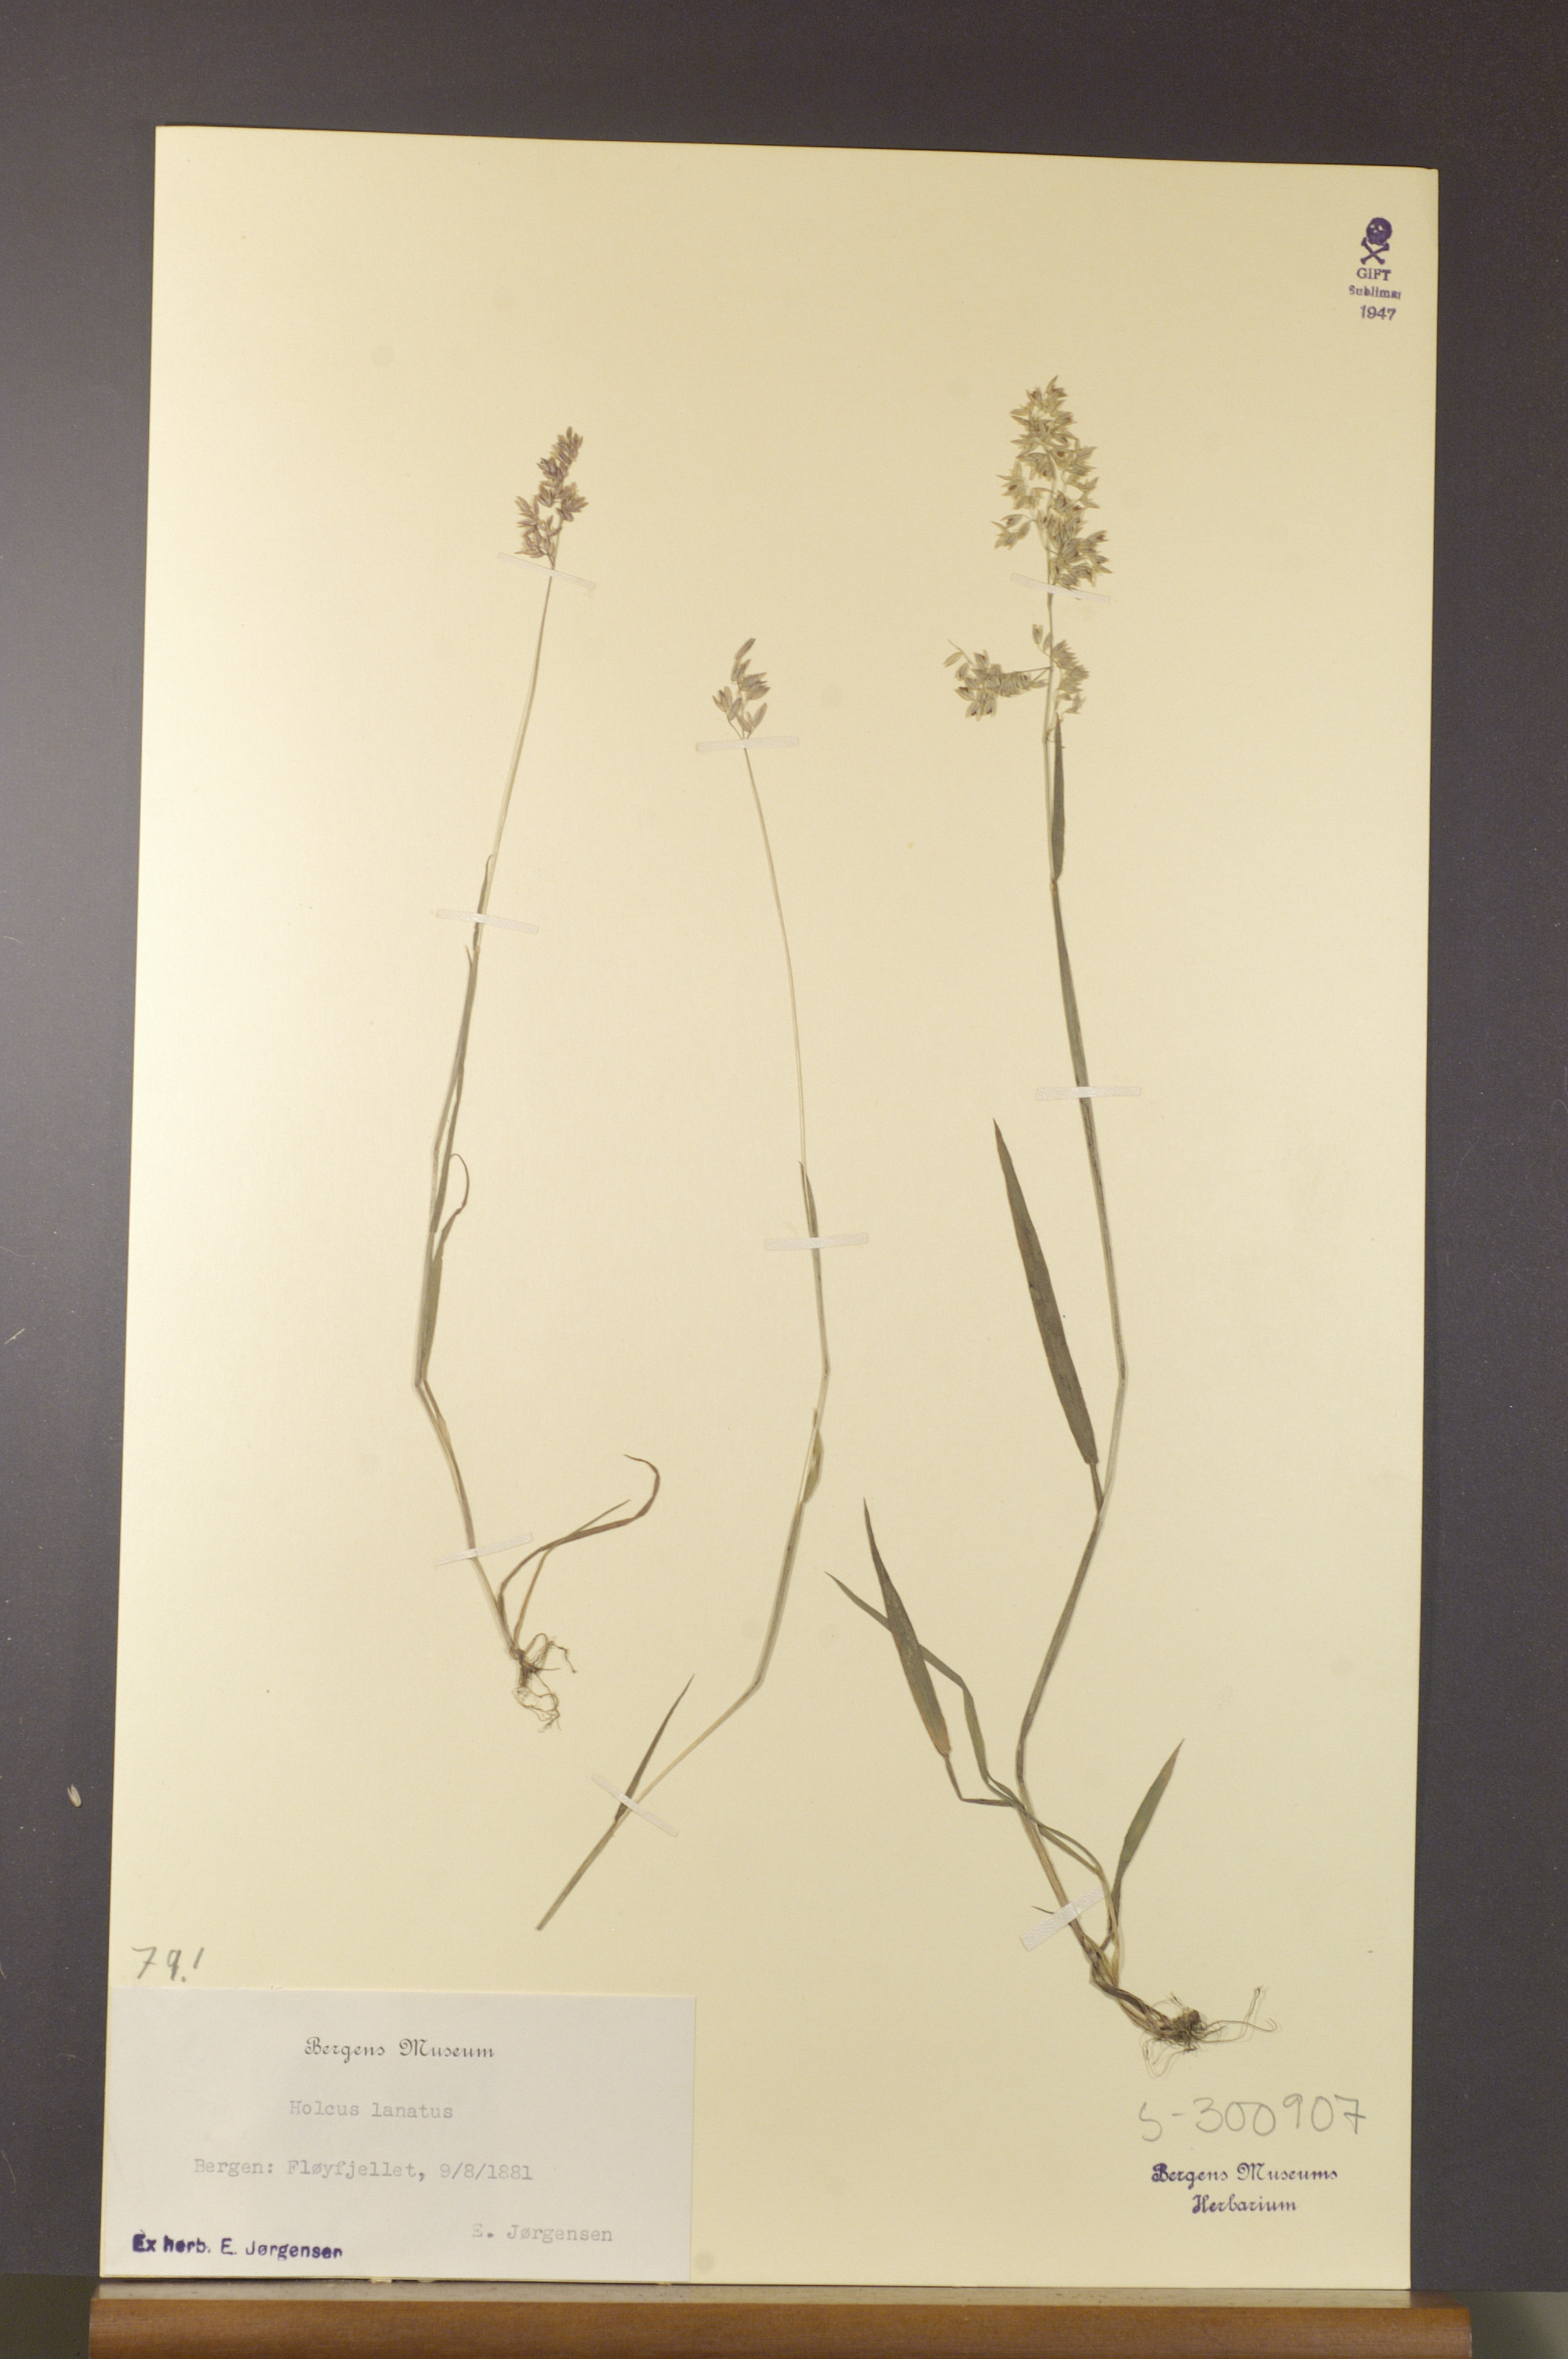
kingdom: Plantae
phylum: Tracheophyta
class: Liliopsida
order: Poales
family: Poaceae
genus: Holcus
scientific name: Holcus lanatus
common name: Yorkshire-fog
